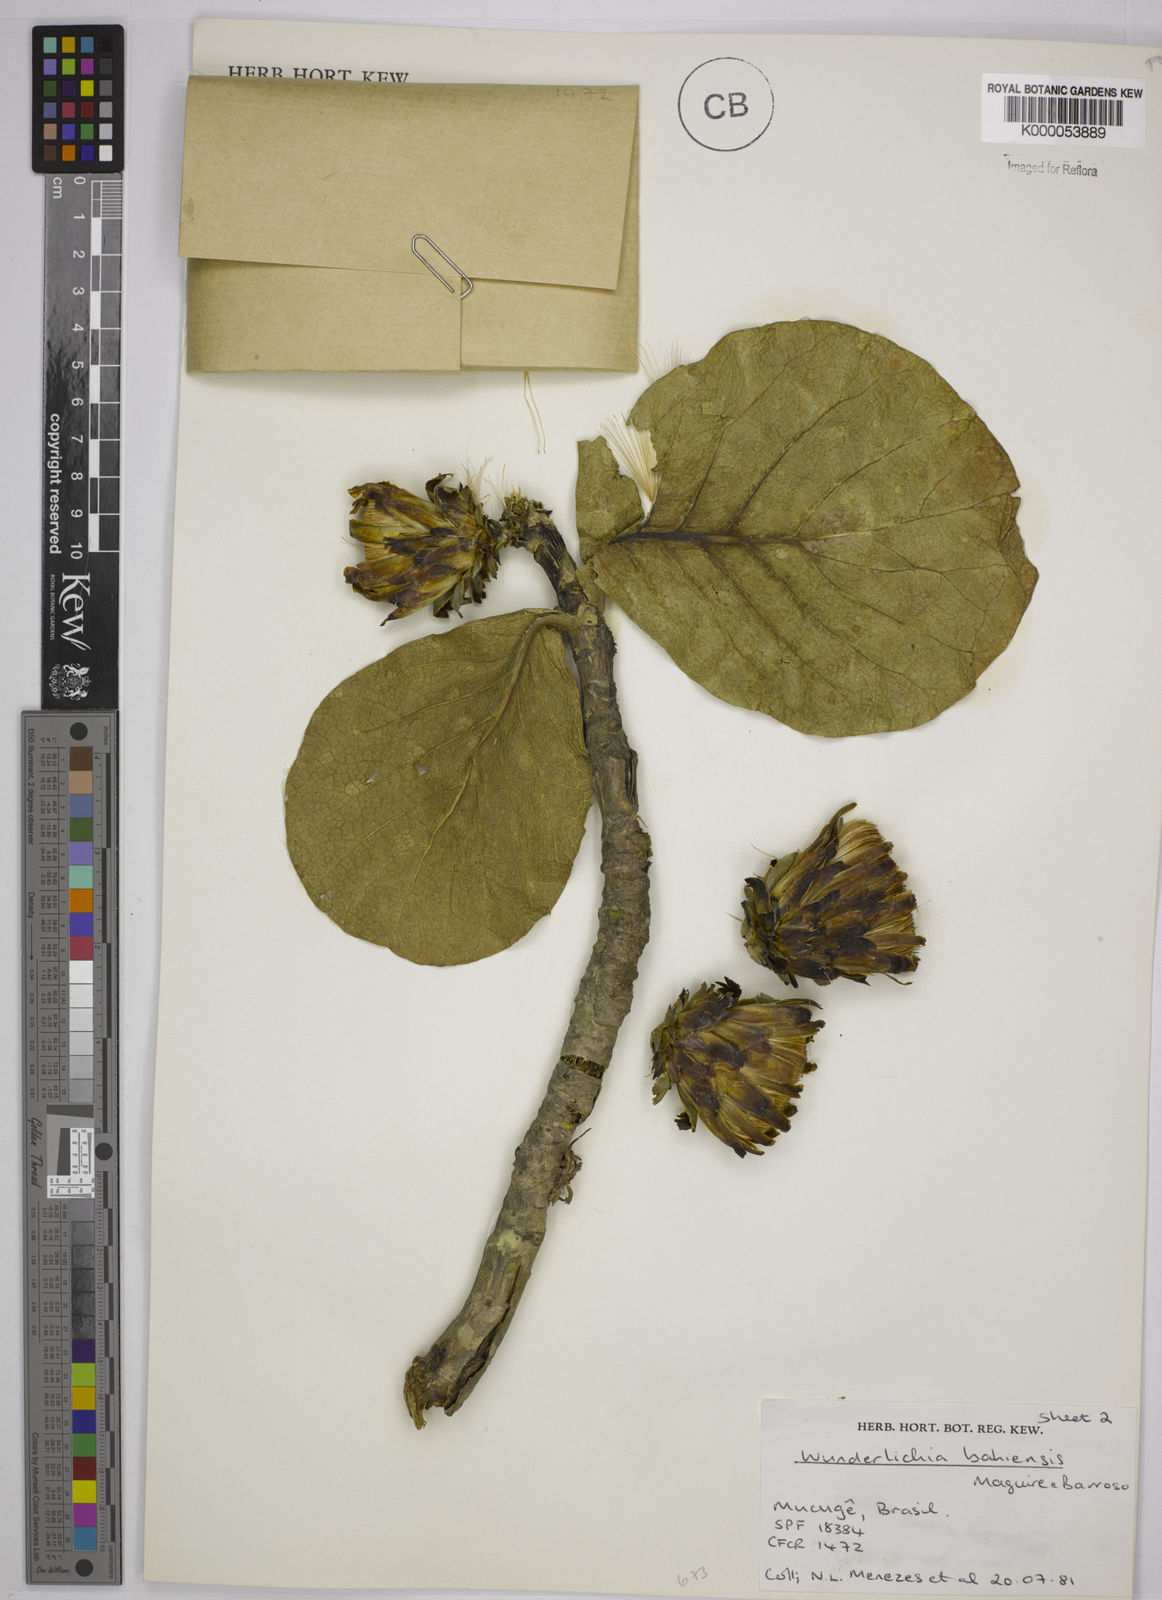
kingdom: Plantae
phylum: Tracheophyta
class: Magnoliopsida
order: Asterales
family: Asteraceae
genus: Wunderlichia
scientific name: Wunderlichia
